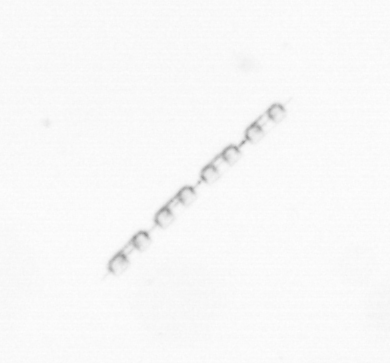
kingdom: Chromista
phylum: Ochrophyta
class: Bacillariophyceae
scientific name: Bacillariophyceae
